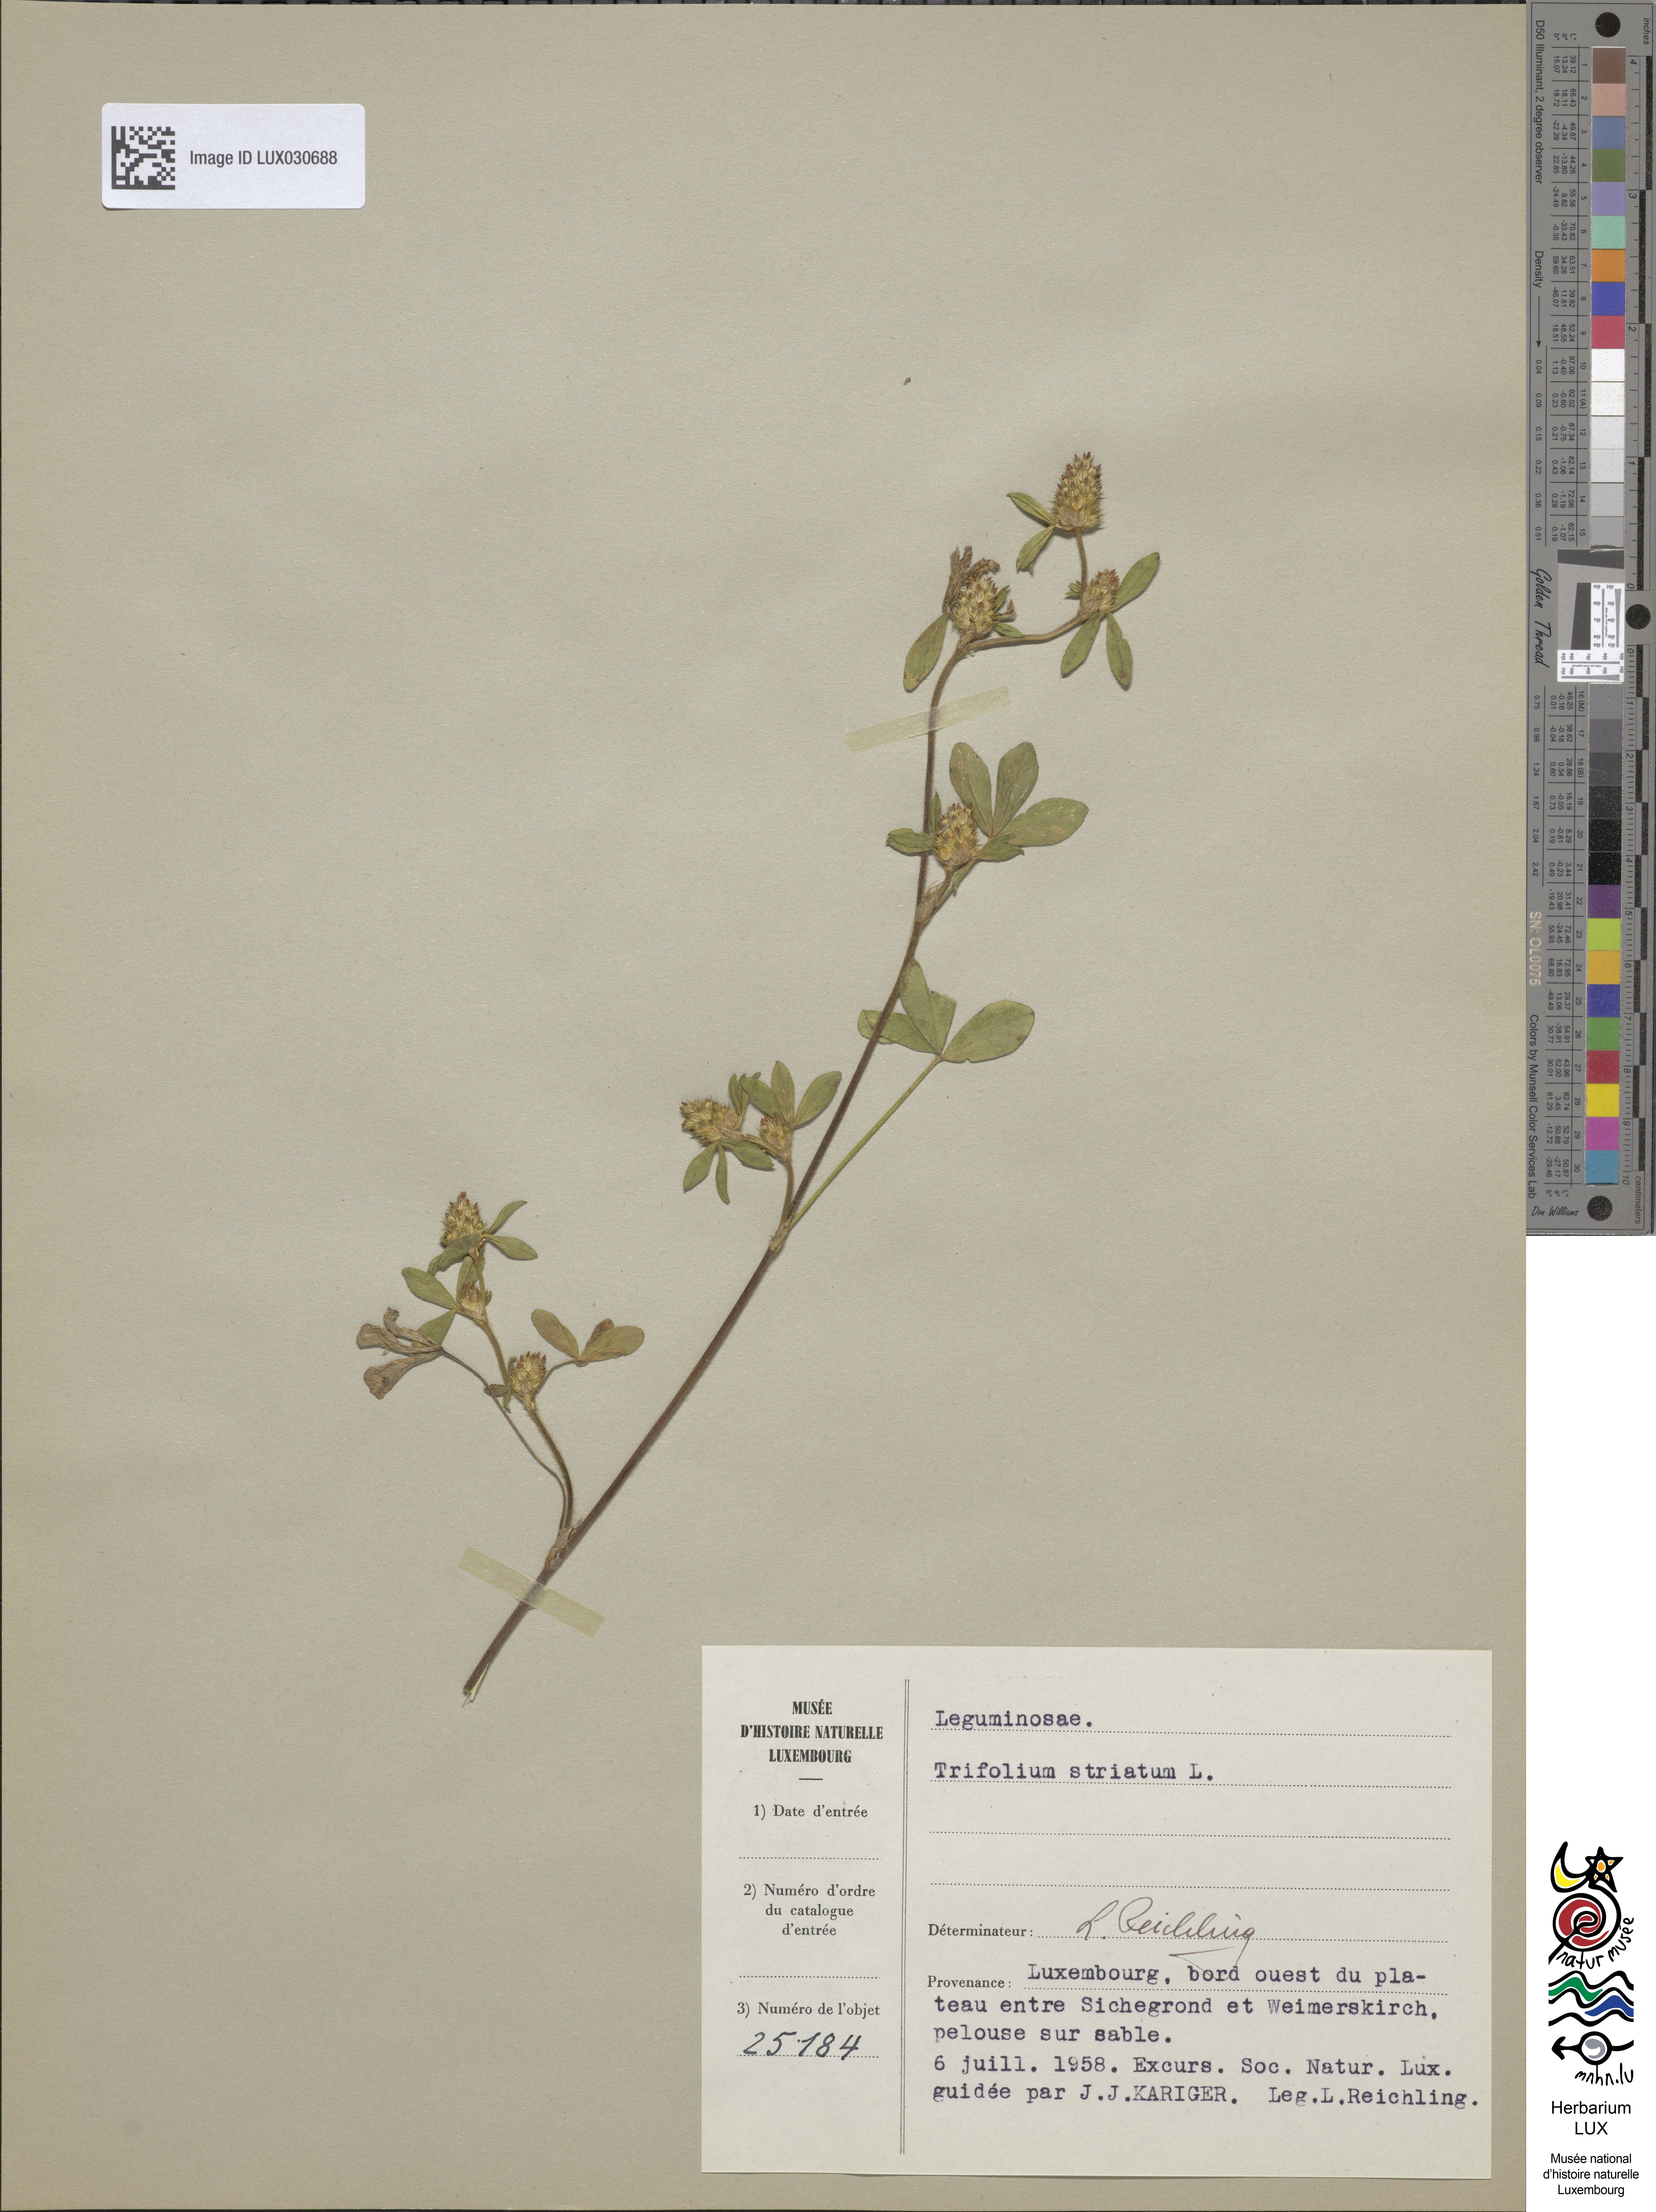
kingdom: Plantae
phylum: Tracheophyta
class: Magnoliopsida
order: Fabales
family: Fabaceae
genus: Trifolium
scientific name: Trifolium striatum
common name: Knotted clover
